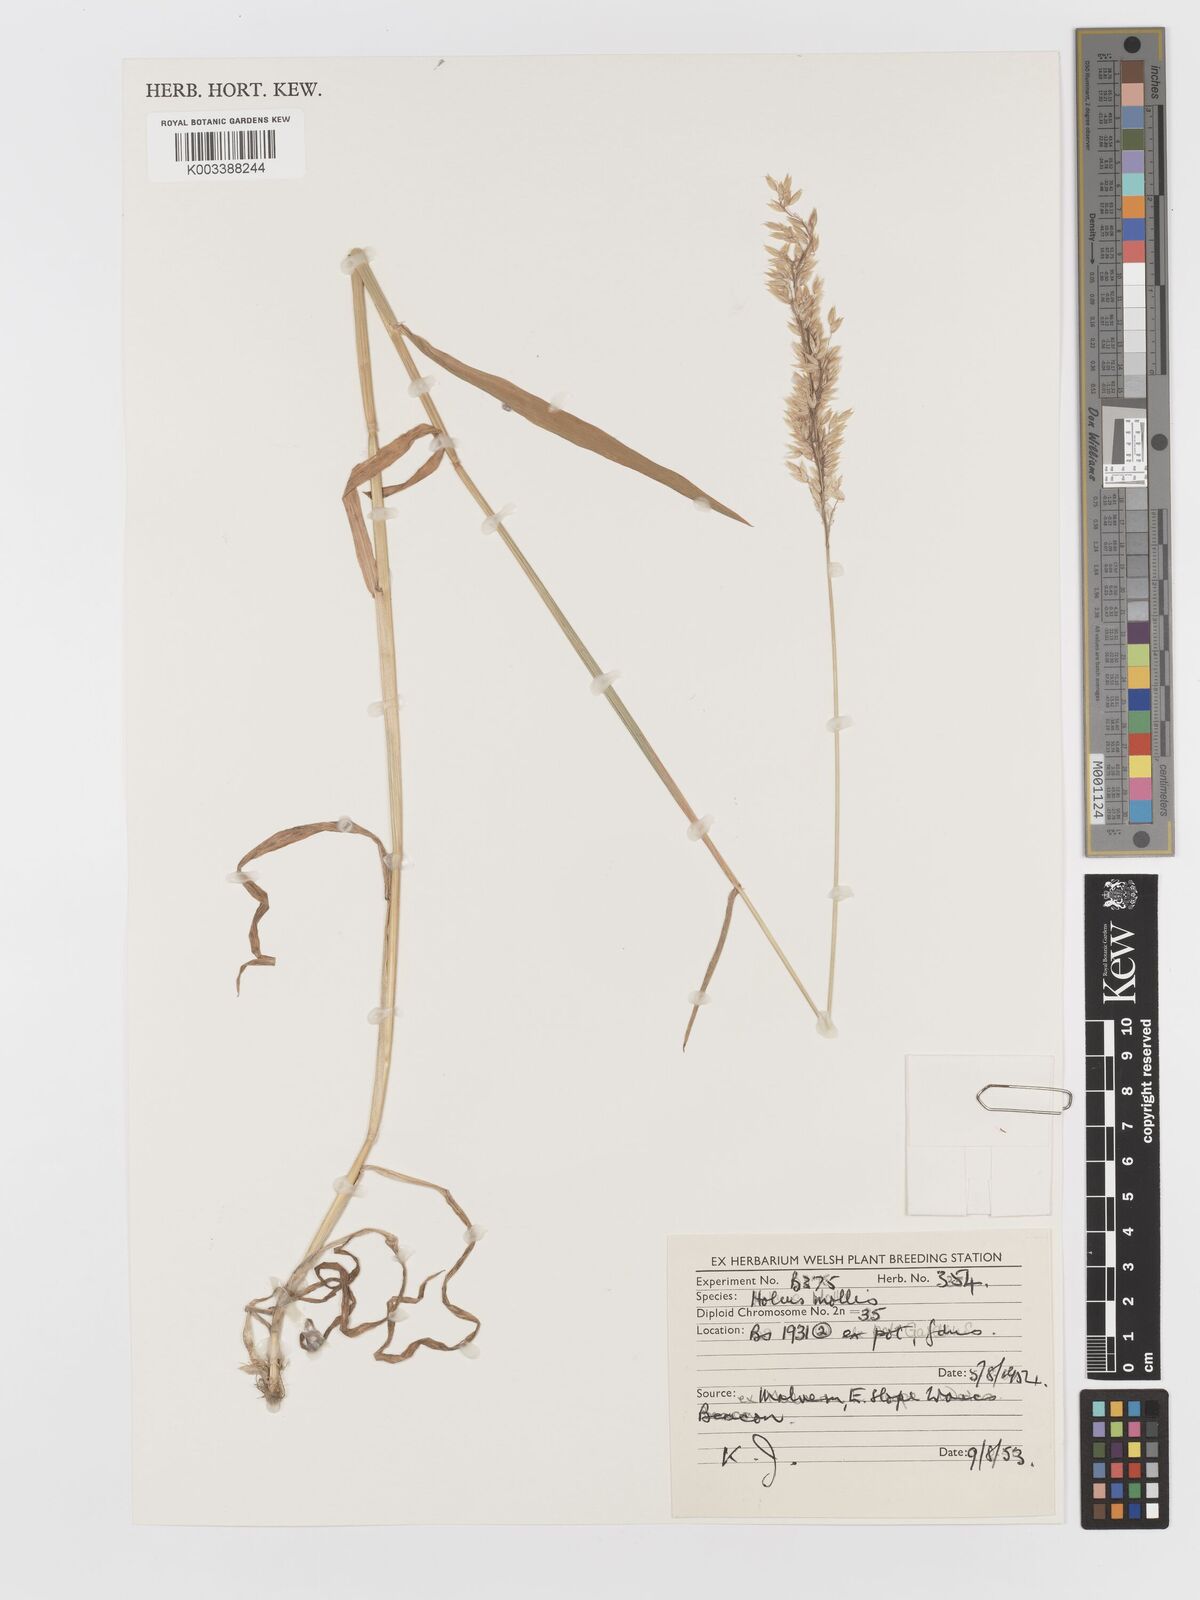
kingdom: Plantae
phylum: Tracheophyta
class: Liliopsida
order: Poales
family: Poaceae
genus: Holcus
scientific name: Holcus mollis
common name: Creeping velvetgrass
